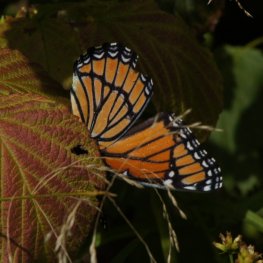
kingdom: Animalia
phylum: Arthropoda
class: Insecta
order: Lepidoptera
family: Nymphalidae
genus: Limenitis
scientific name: Limenitis archippus
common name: Viceroy
